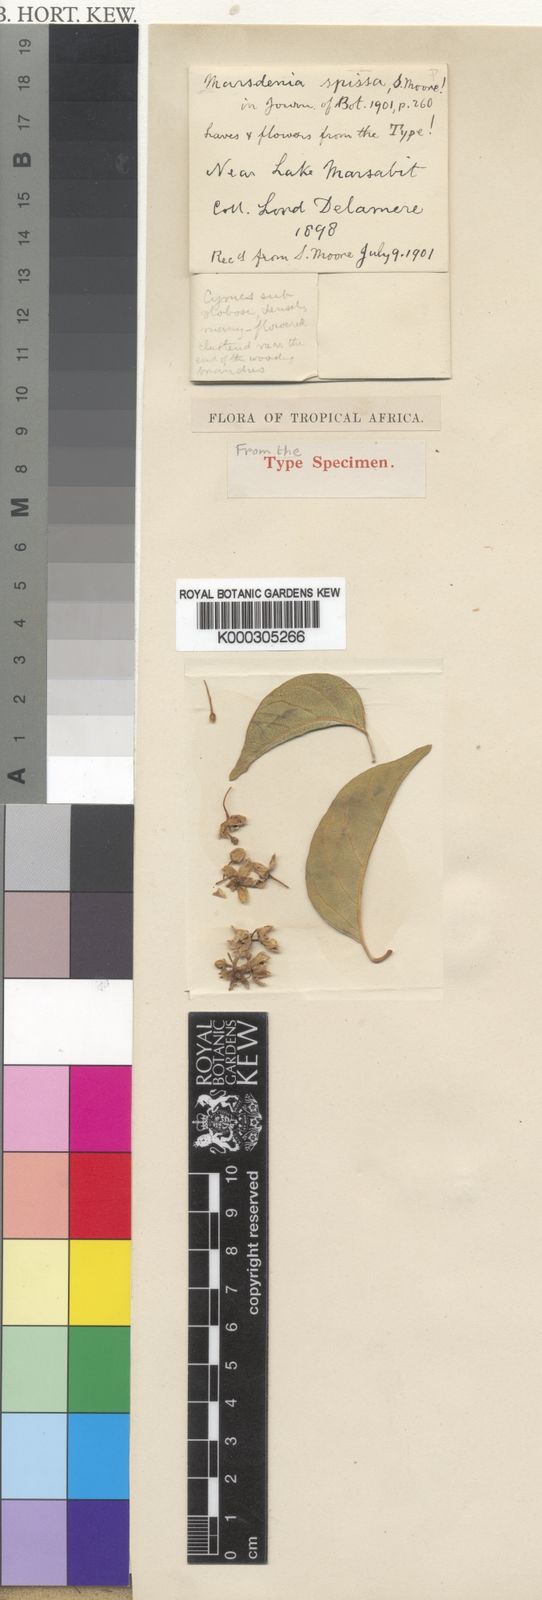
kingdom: Plantae
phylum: Tracheophyta
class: Magnoliopsida
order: Gentianales
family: Apocynaceae
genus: Stephanotis
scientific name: Stephanotis abyssinica
